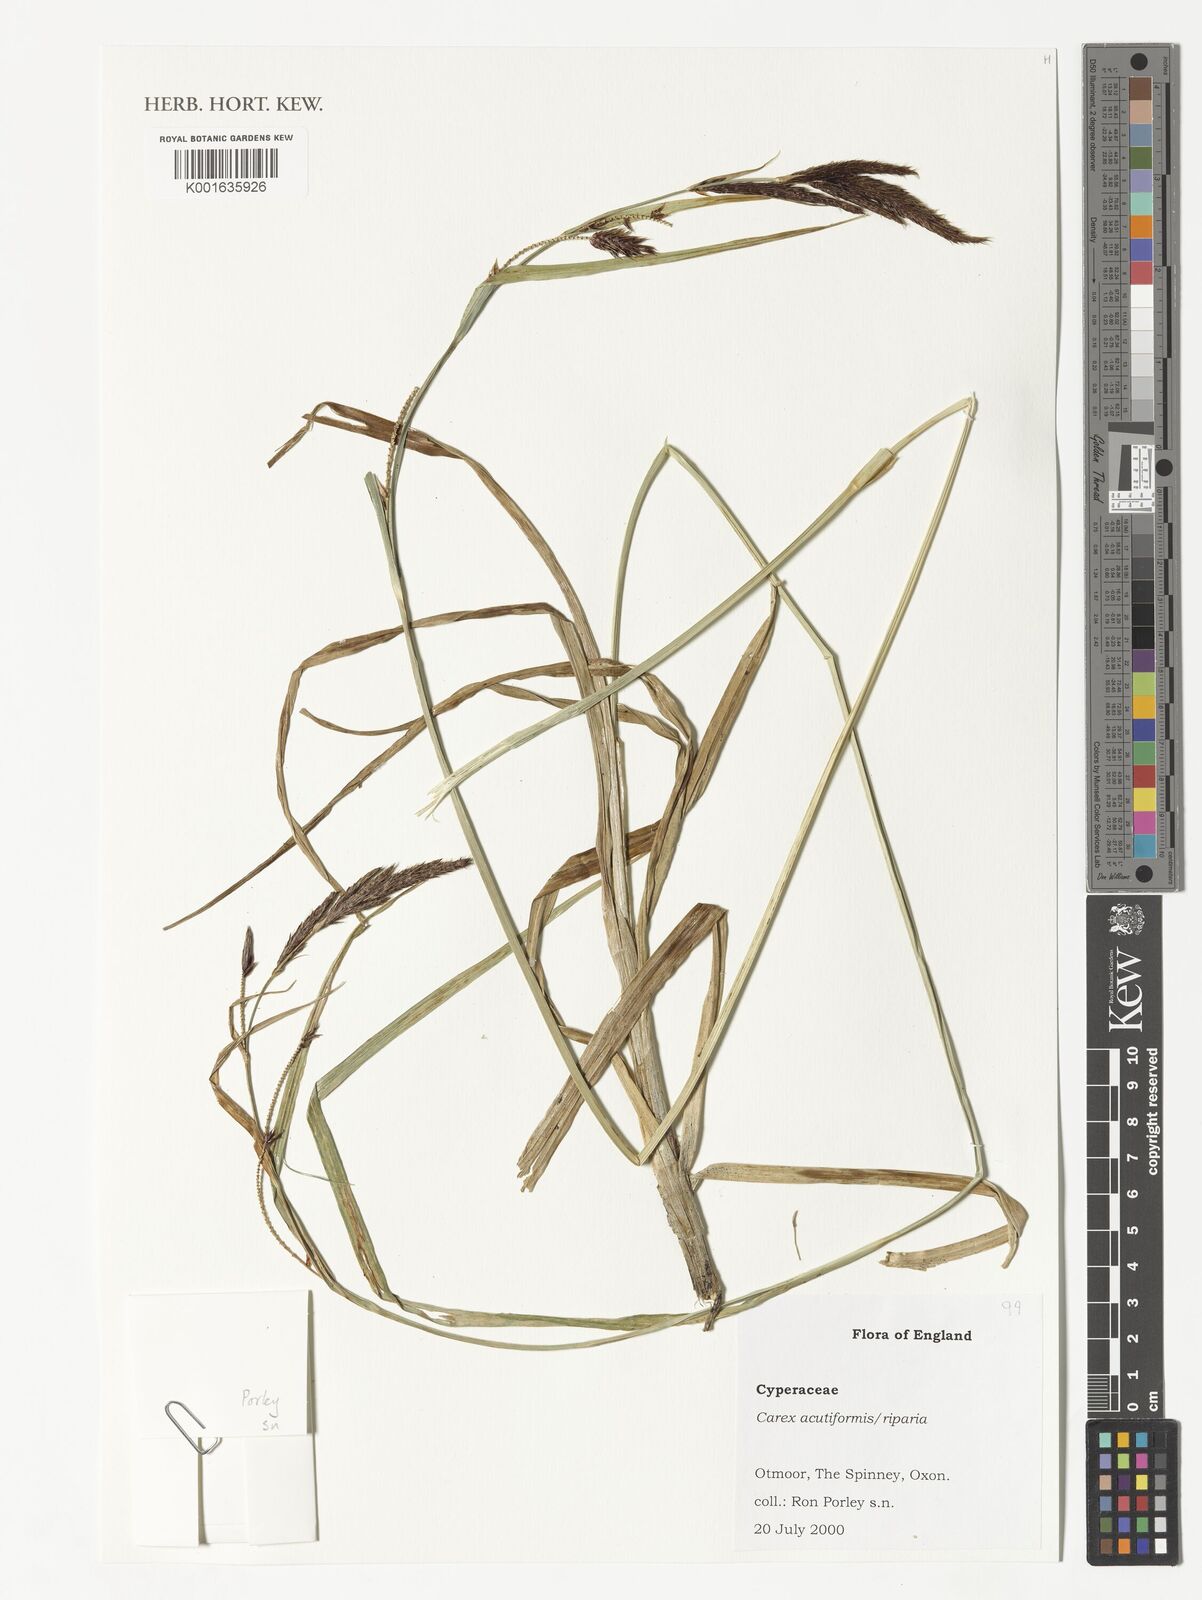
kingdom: Plantae
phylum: Tracheophyta
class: Liliopsida
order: Poales
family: Cyperaceae
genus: Carex
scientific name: Carex hispida
